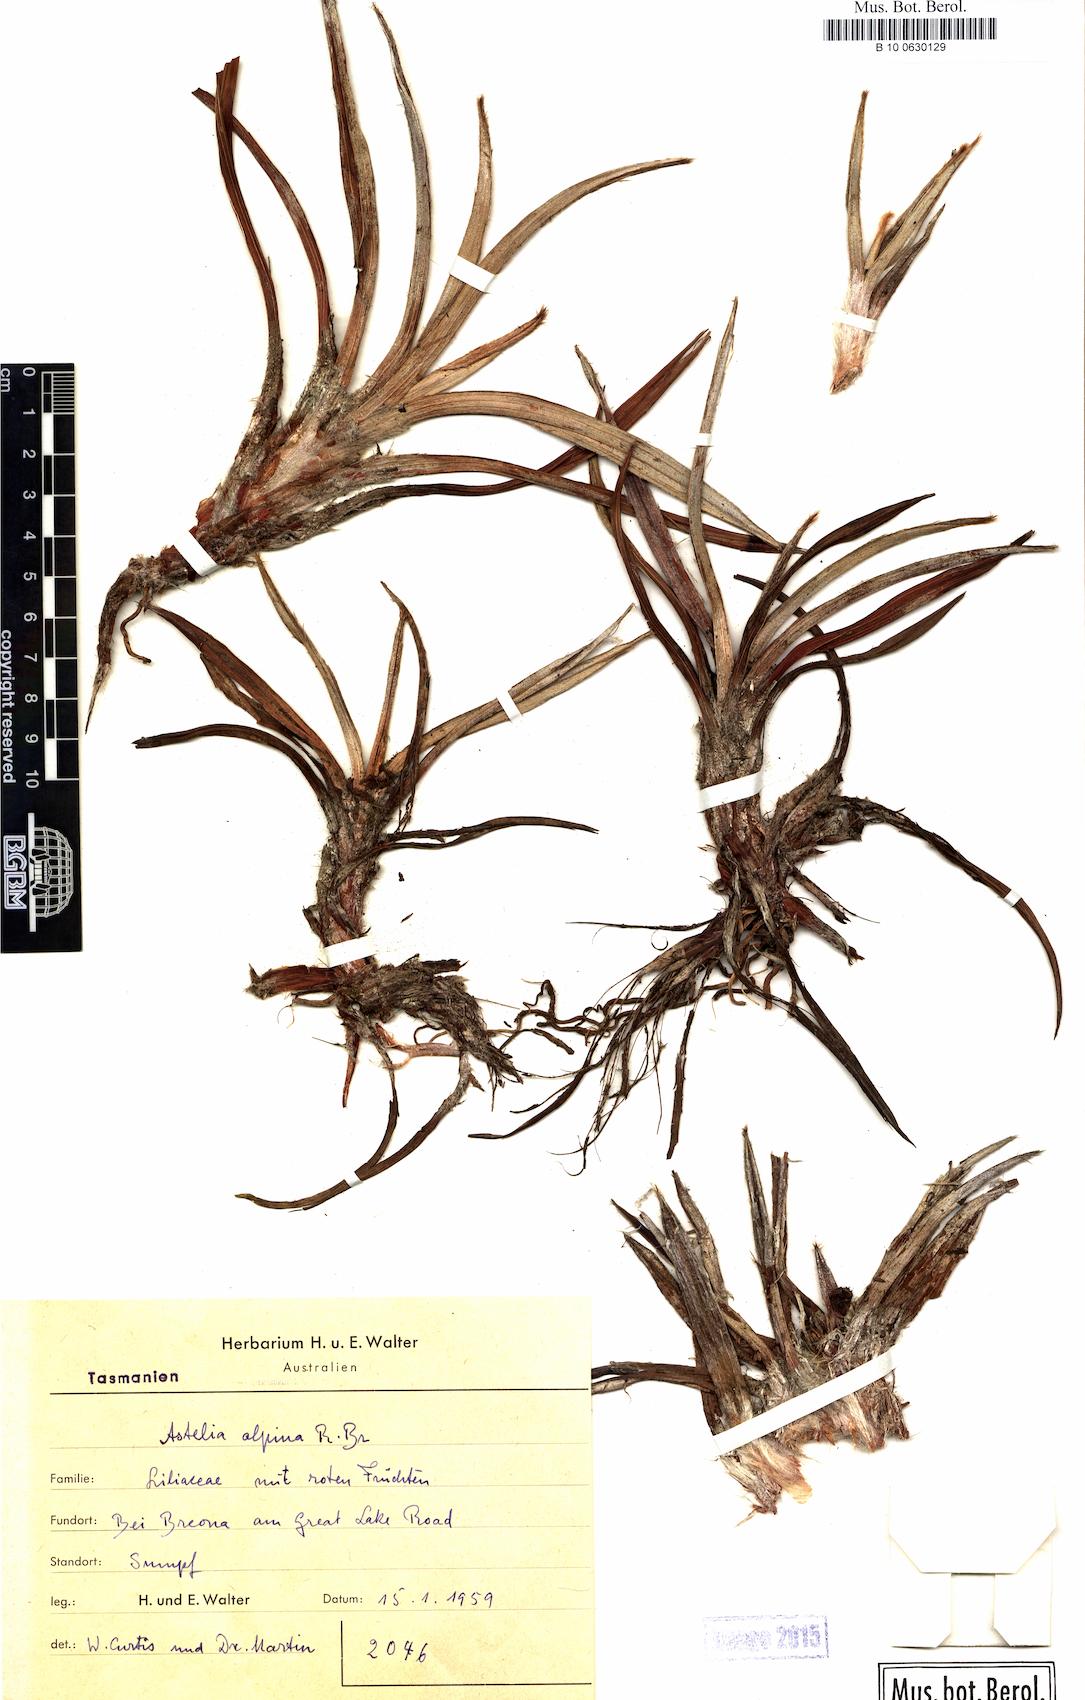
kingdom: Plantae
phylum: Tracheophyta
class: Liliopsida
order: Asparagales
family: Asteliaceae
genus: Astelia
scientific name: Astelia alpina
